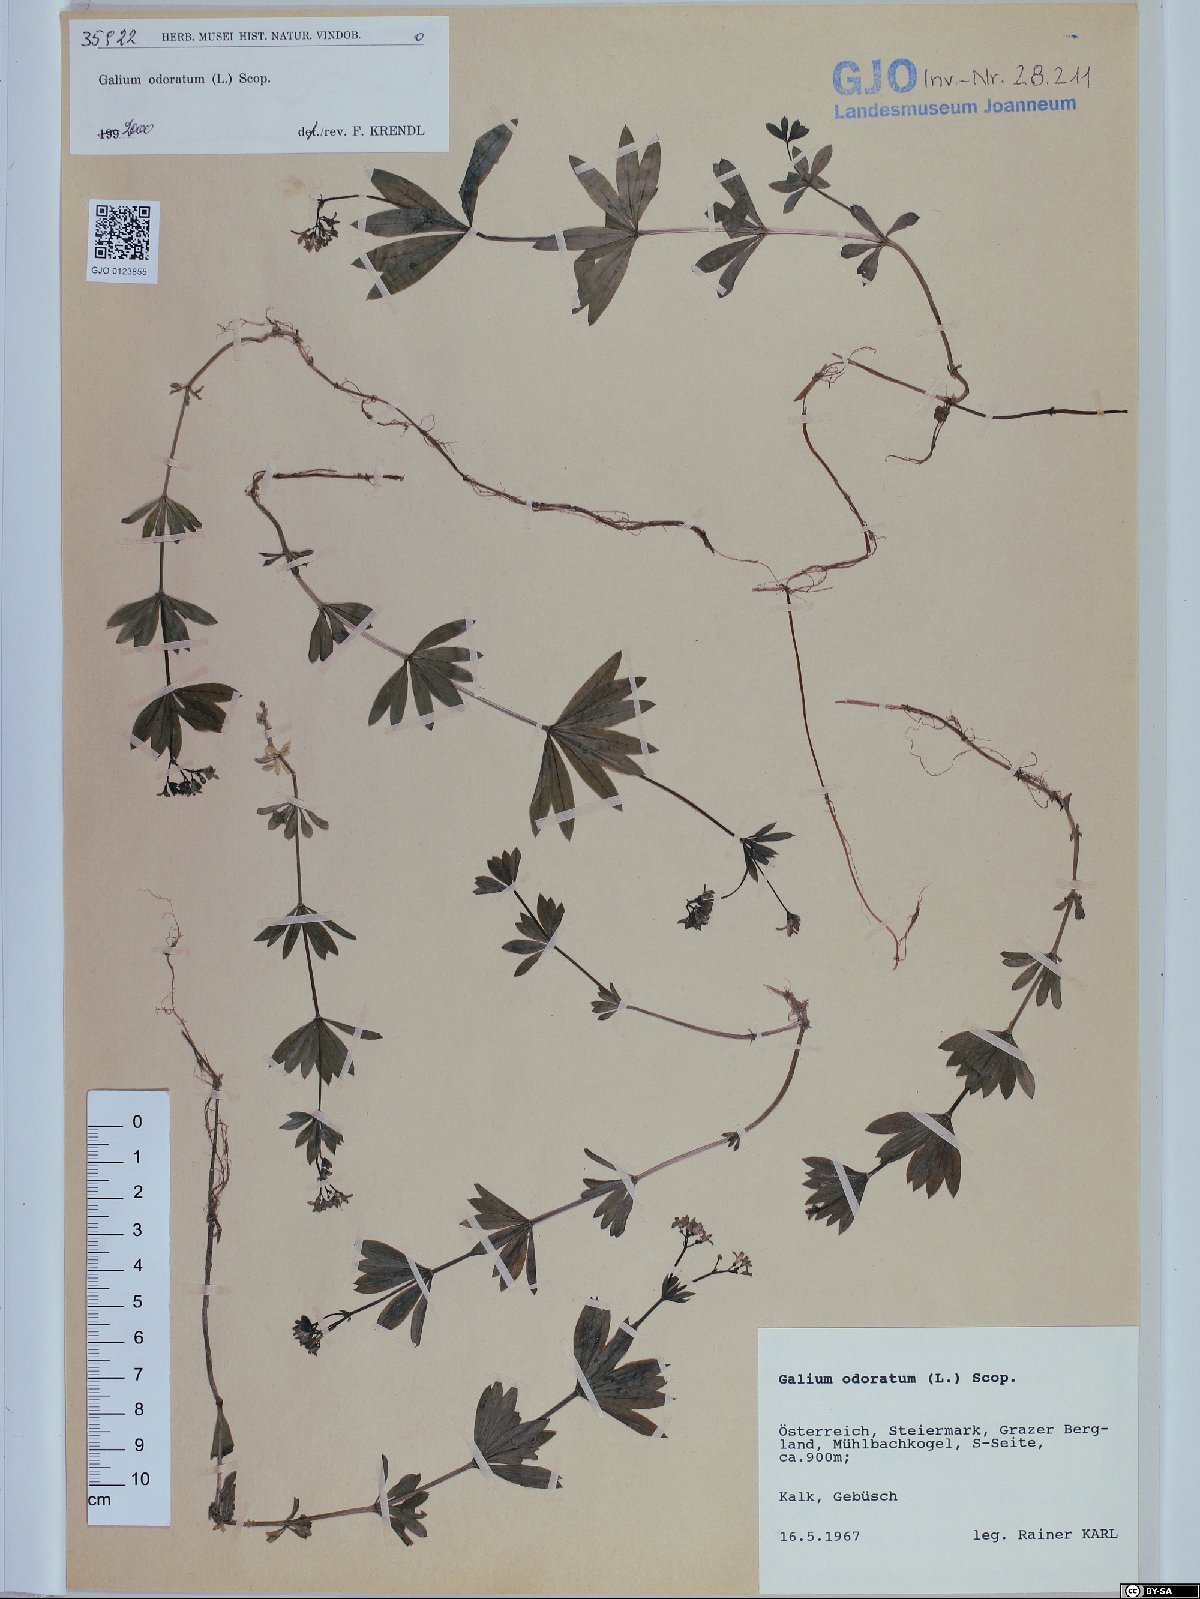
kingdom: Plantae
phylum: Tracheophyta
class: Magnoliopsida
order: Gentianales
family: Rubiaceae
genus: Galium
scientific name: Galium odoratum
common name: Sweet woodruff
